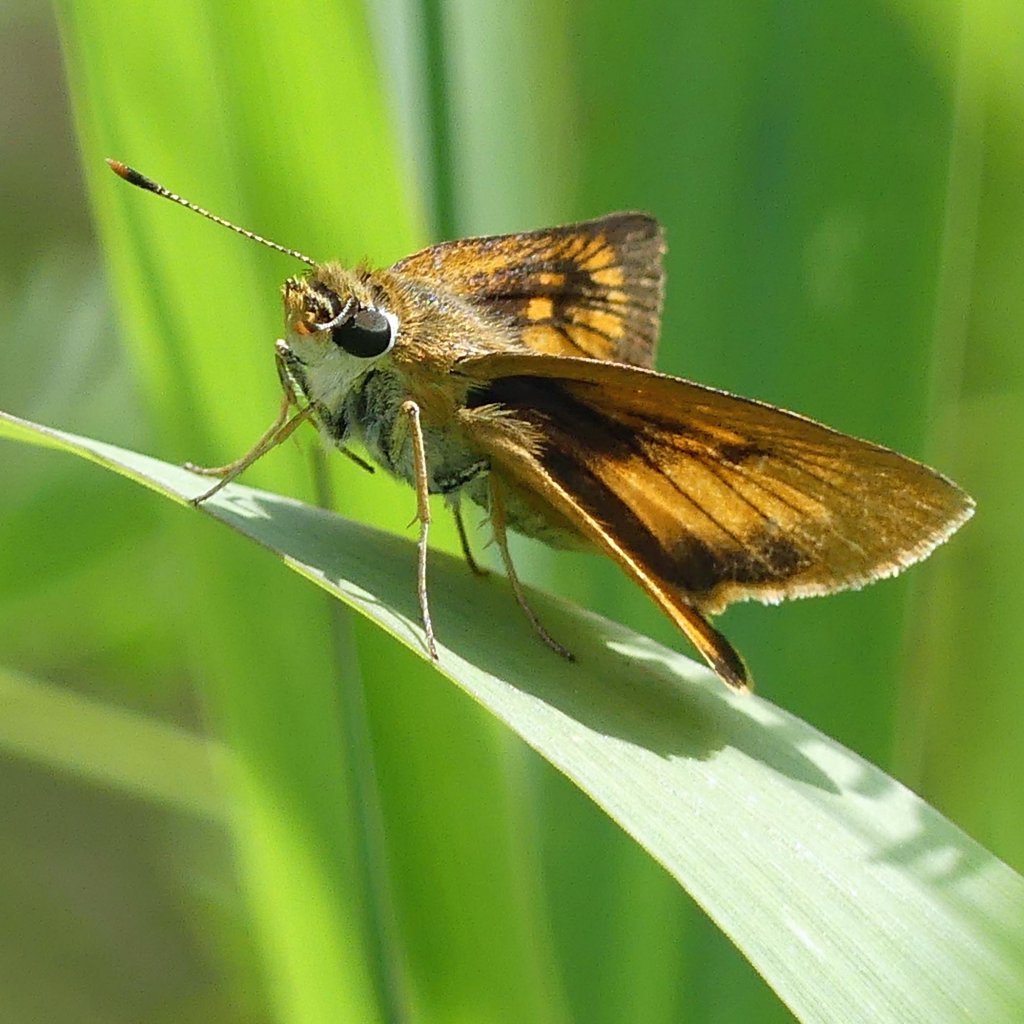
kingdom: Animalia
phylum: Arthropoda
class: Insecta
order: Lepidoptera
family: Hesperiidae
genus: Atrytone
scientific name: Atrytone delaware
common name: Delaware Skipper
